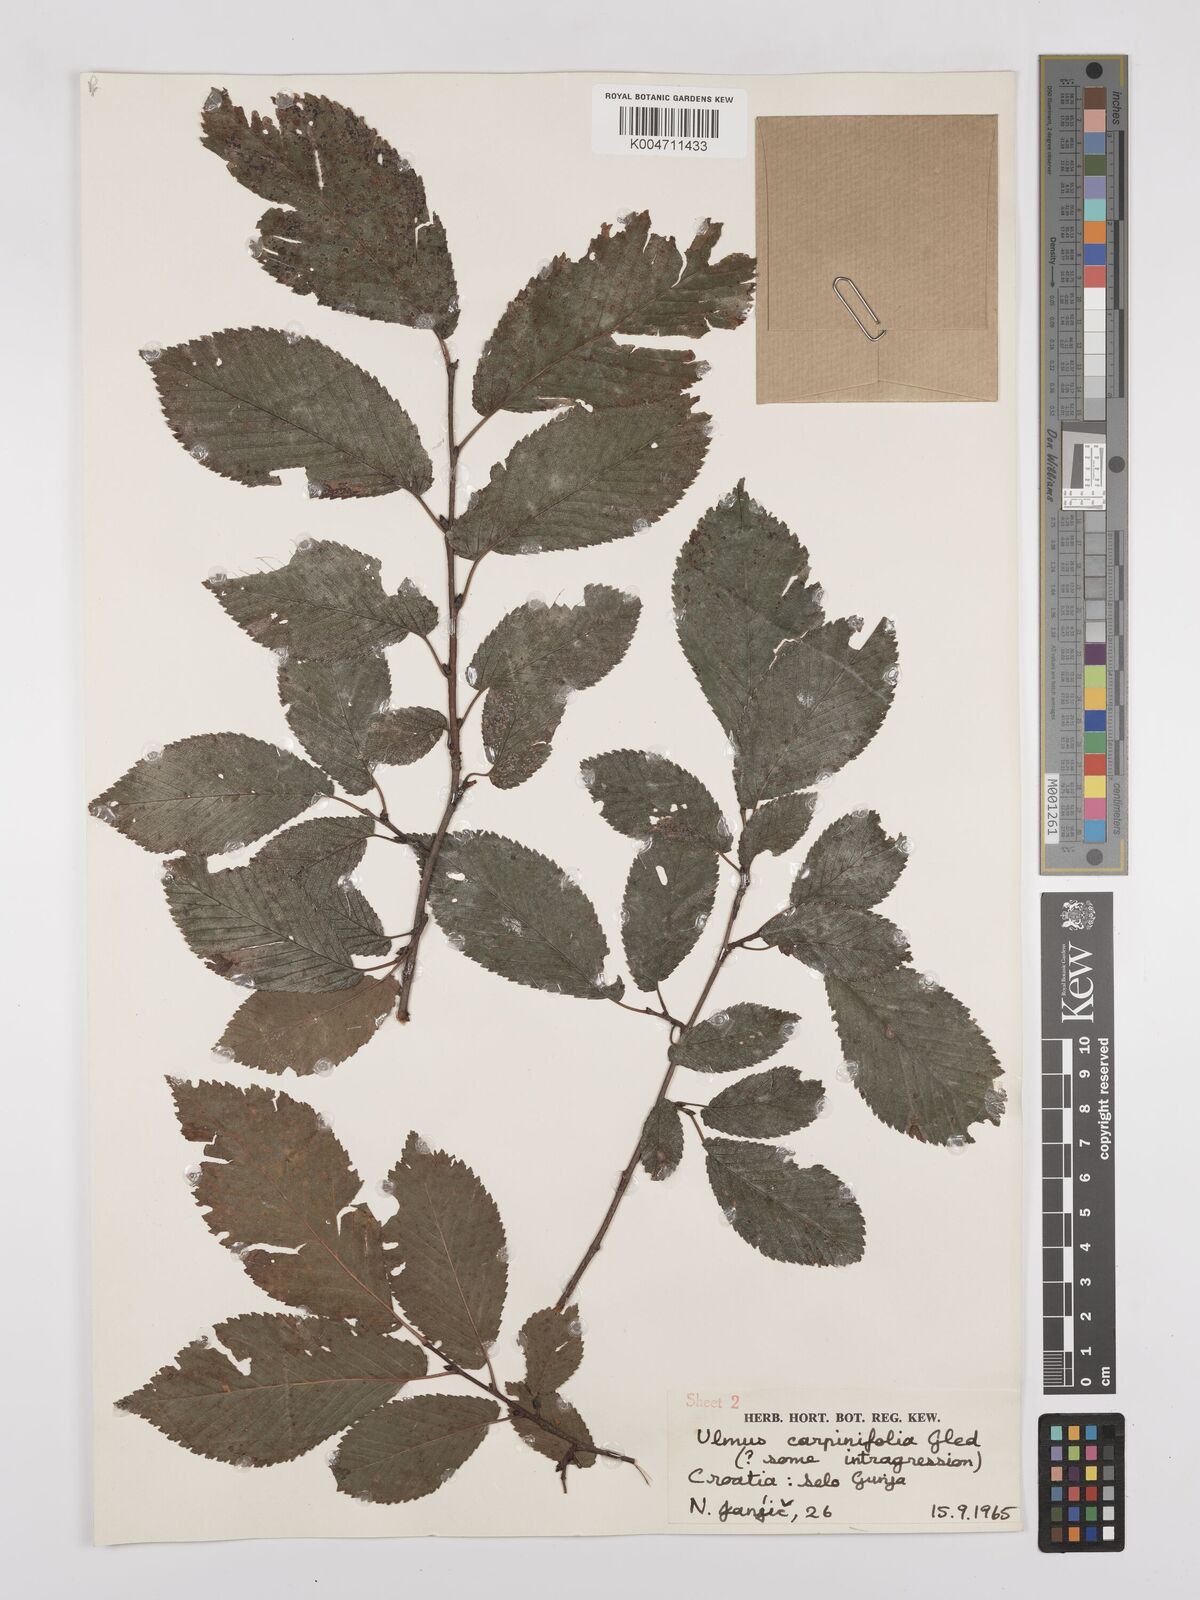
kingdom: Plantae
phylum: Tracheophyta
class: Magnoliopsida
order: Rosales
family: Ulmaceae
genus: Ulmus
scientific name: Ulmus minor
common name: Small-leaved elm
